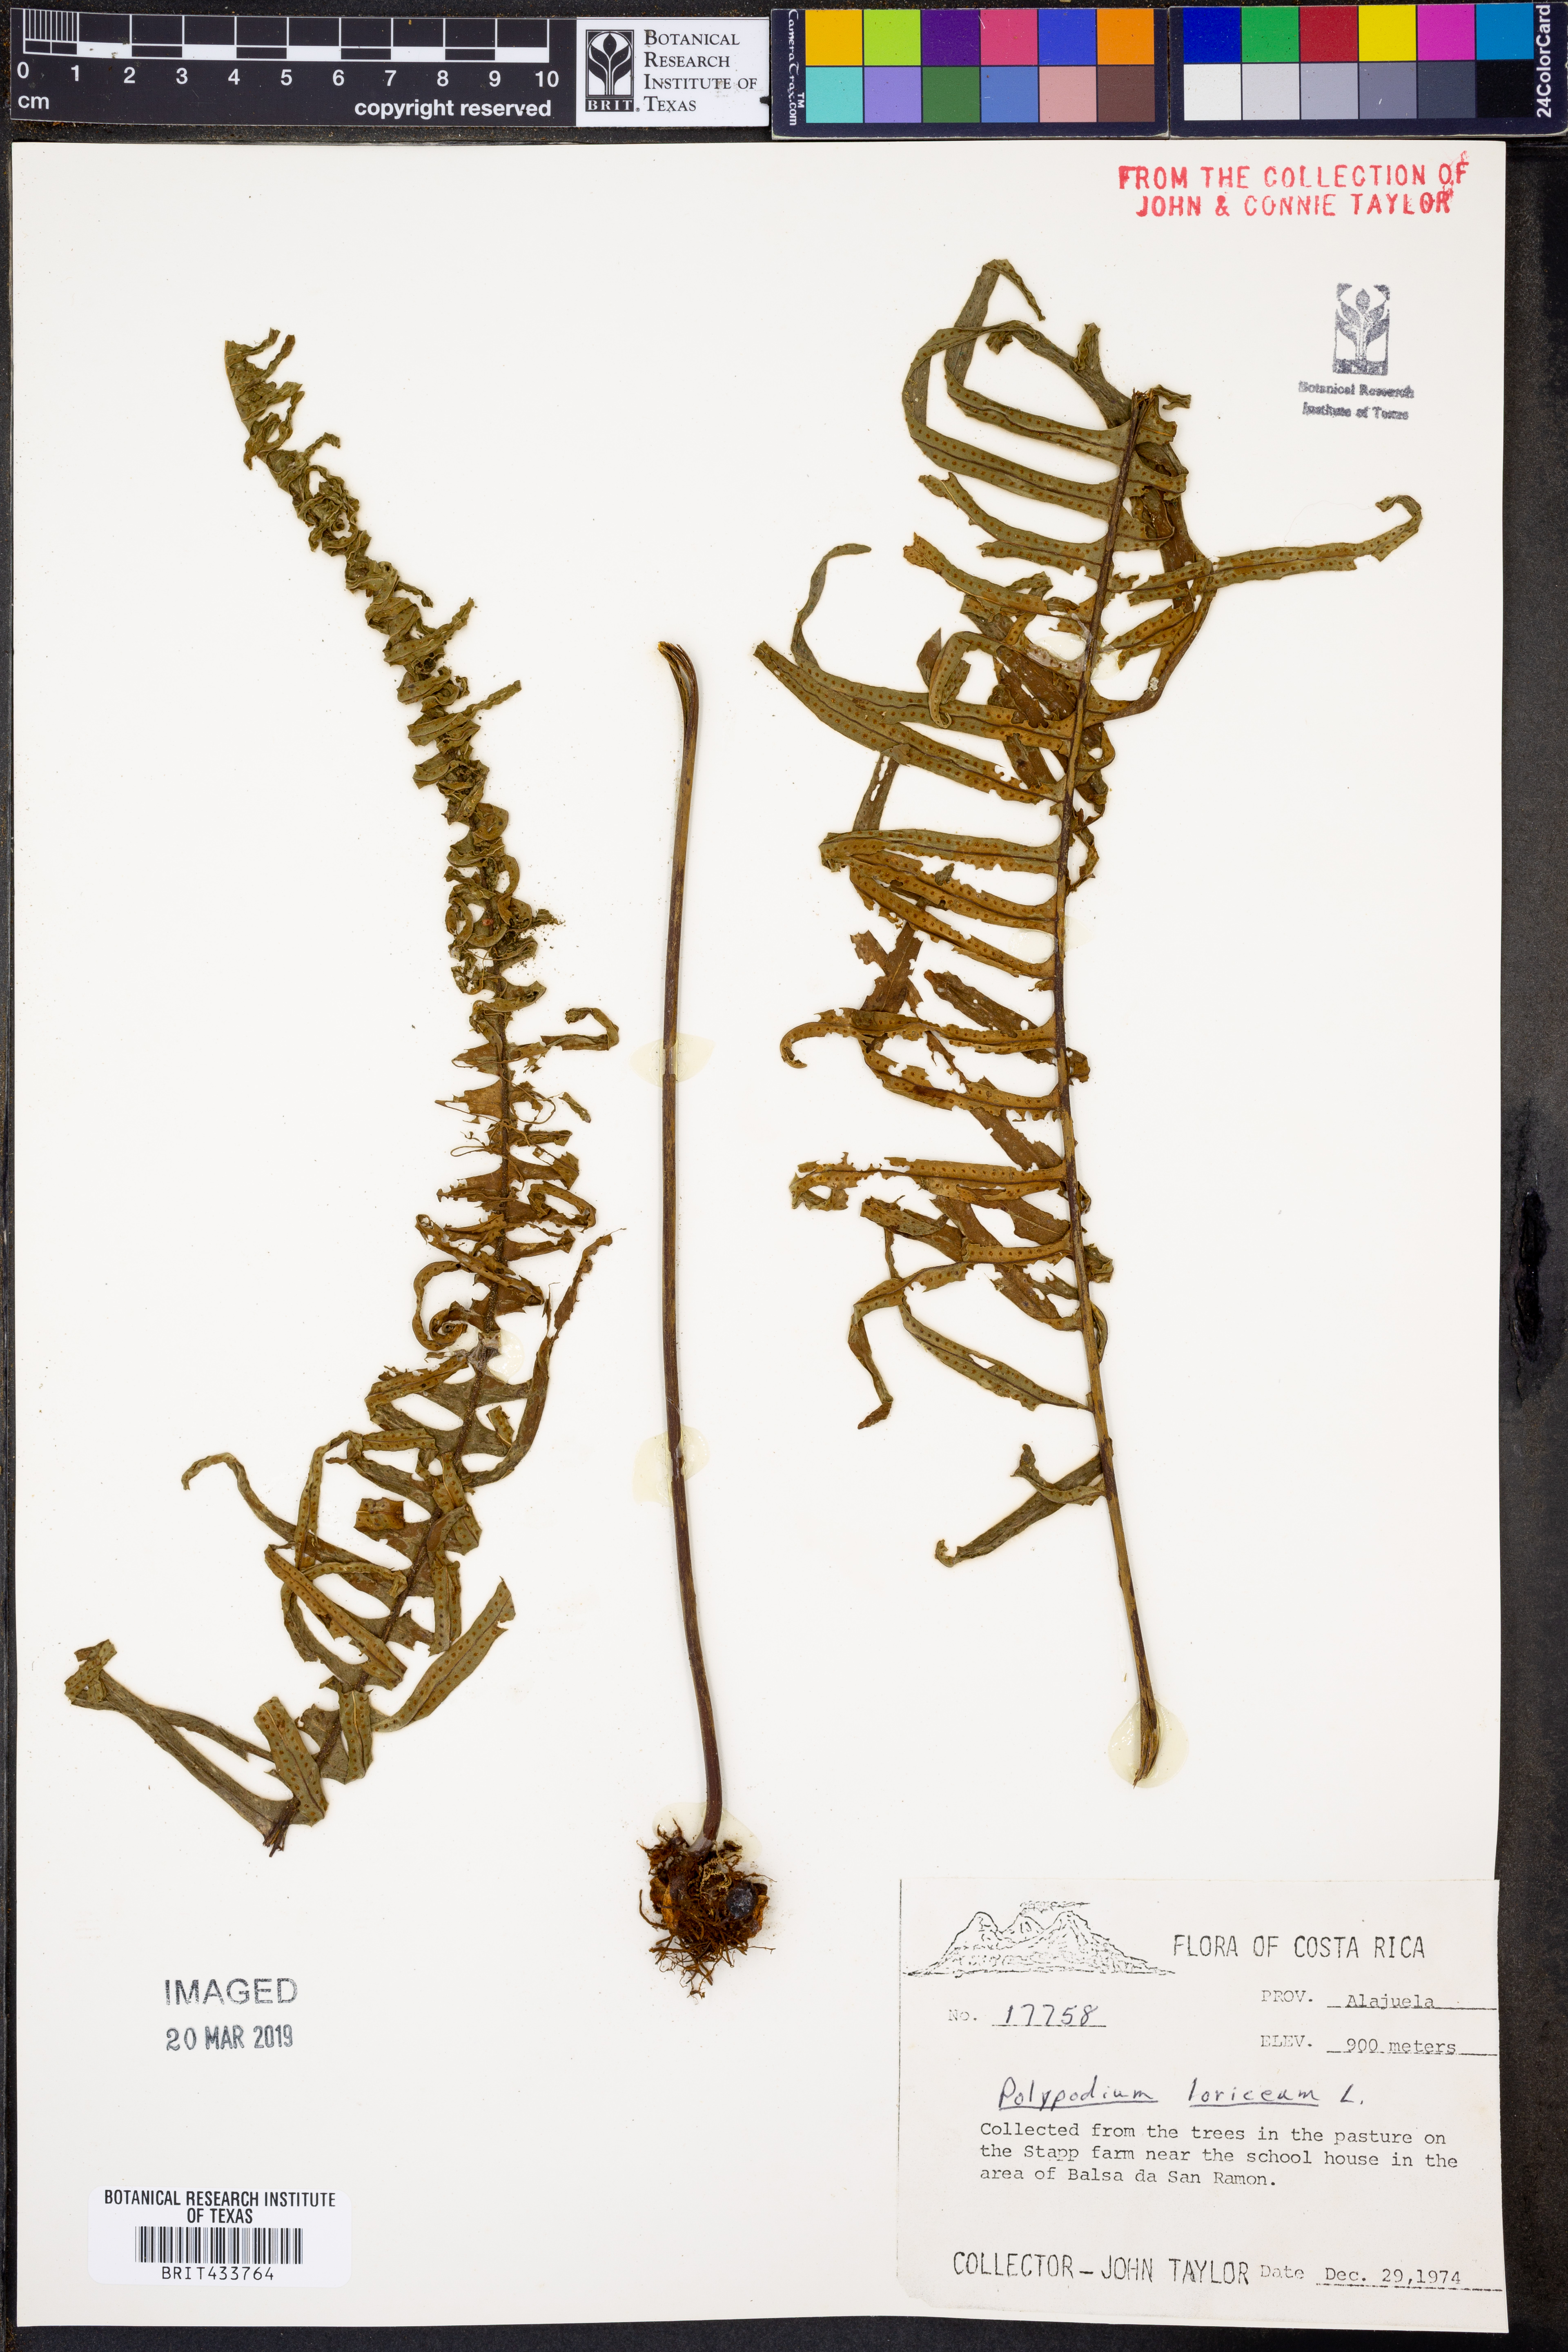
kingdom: Plantae
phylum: Tracheophyta
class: Polypodiopsida
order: Polypodiales
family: Polypodiaceae
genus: Serpocaulon
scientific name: Serpocaulon loriceum
